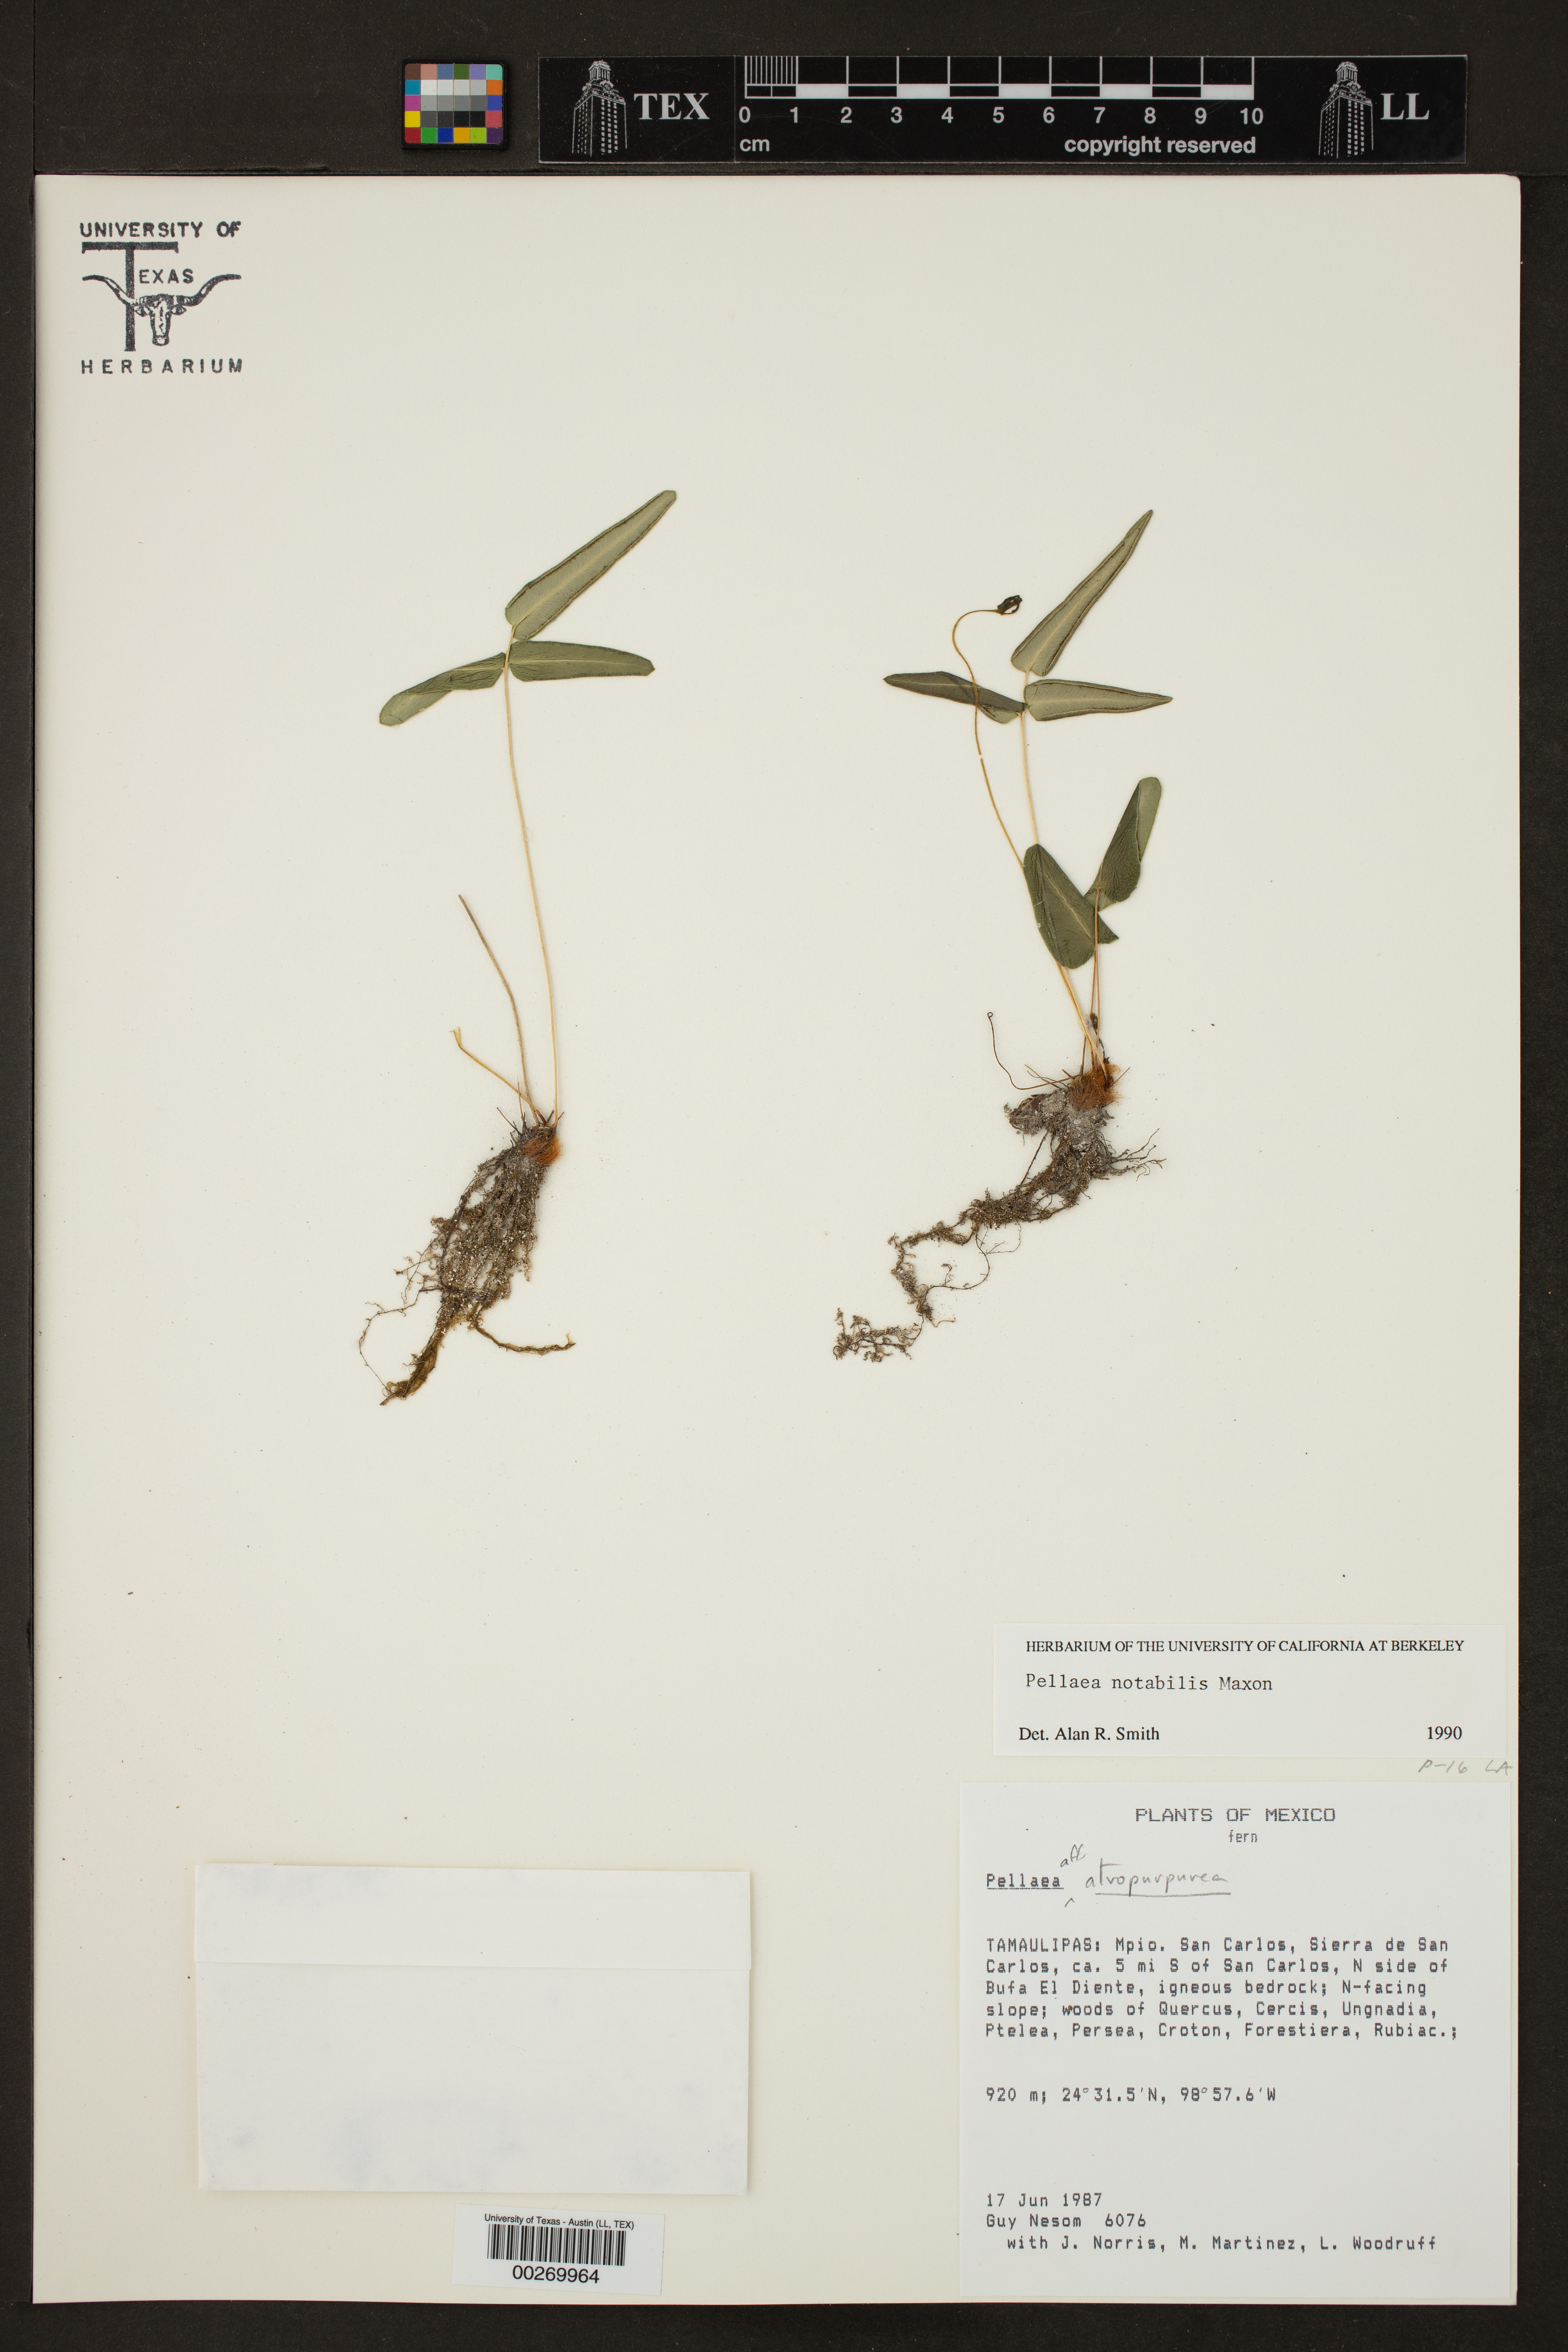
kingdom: Plantae
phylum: Tracheophyta
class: Polypodiopsida
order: Polypodiales
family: Pteridaceae
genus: Pellaea
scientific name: Pellaea notabilis
